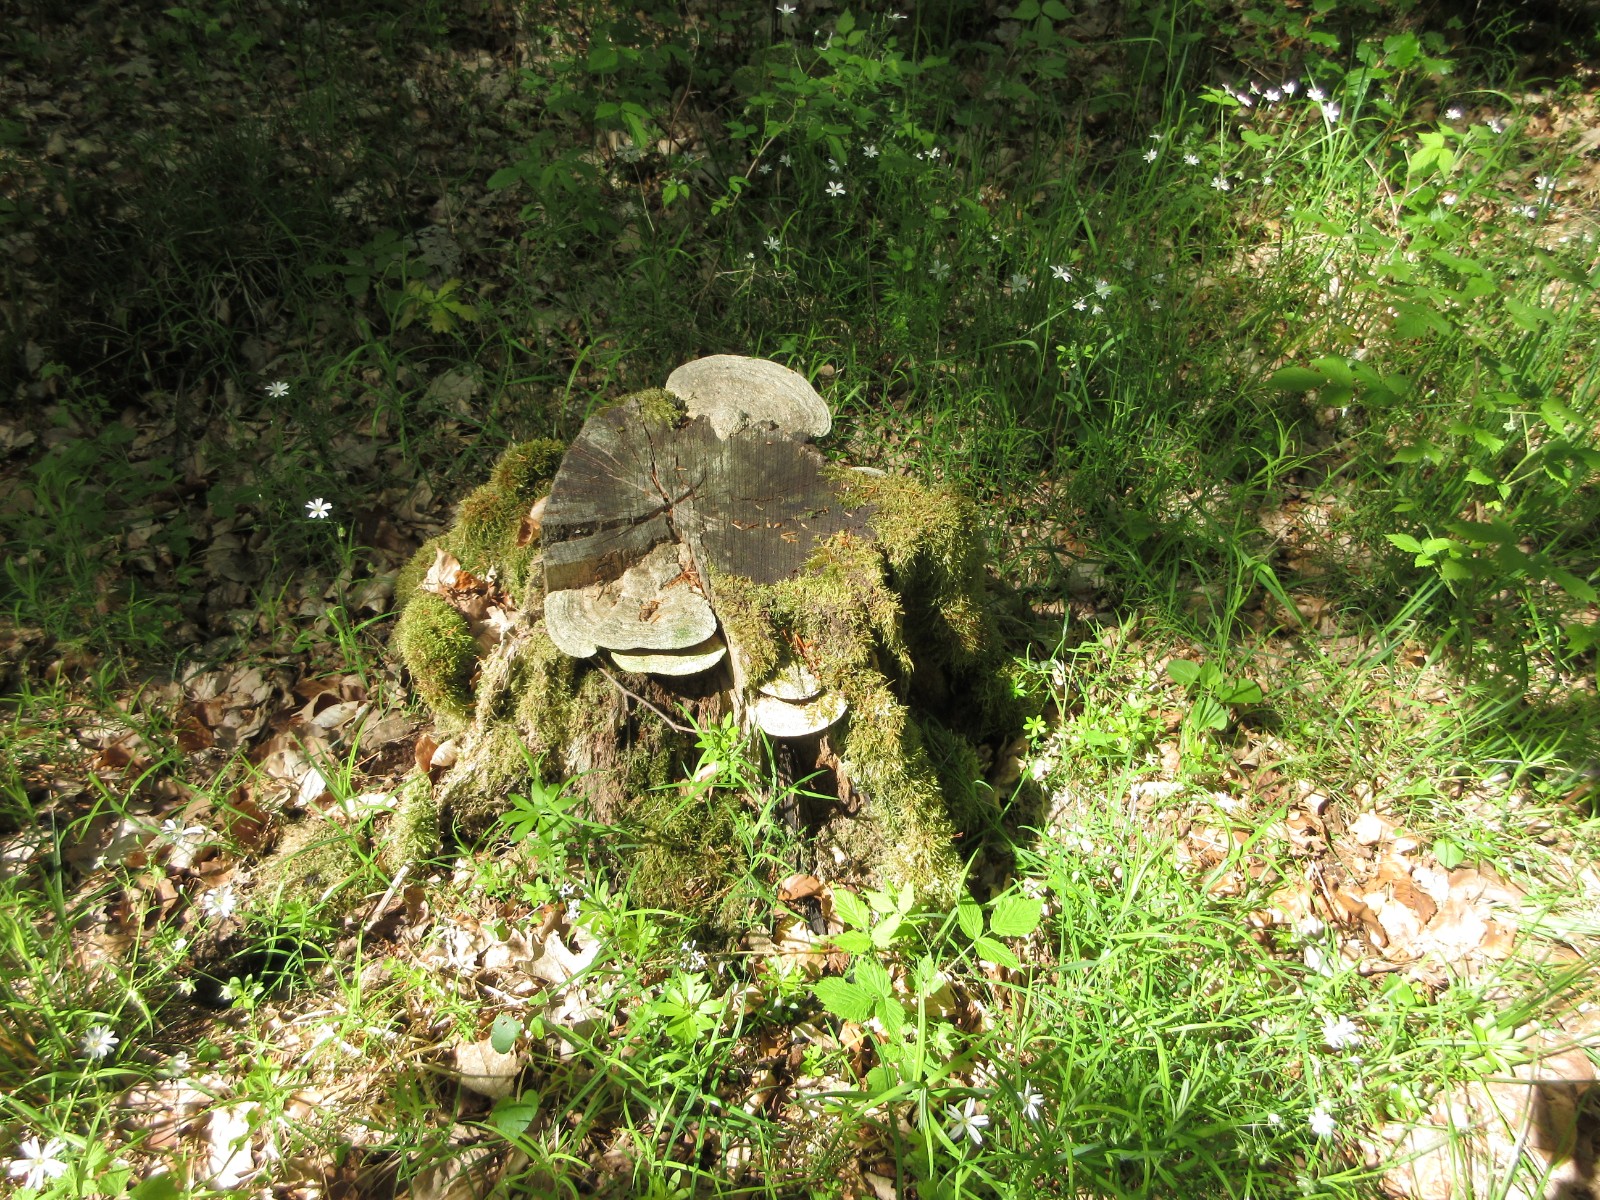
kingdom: Fungi
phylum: Basidiomycota
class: Agaricomycetes
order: Polyporales
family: Polyporaceae
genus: Ganoderma
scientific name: Ganoderma applanatum
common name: flad lakporesvamp
